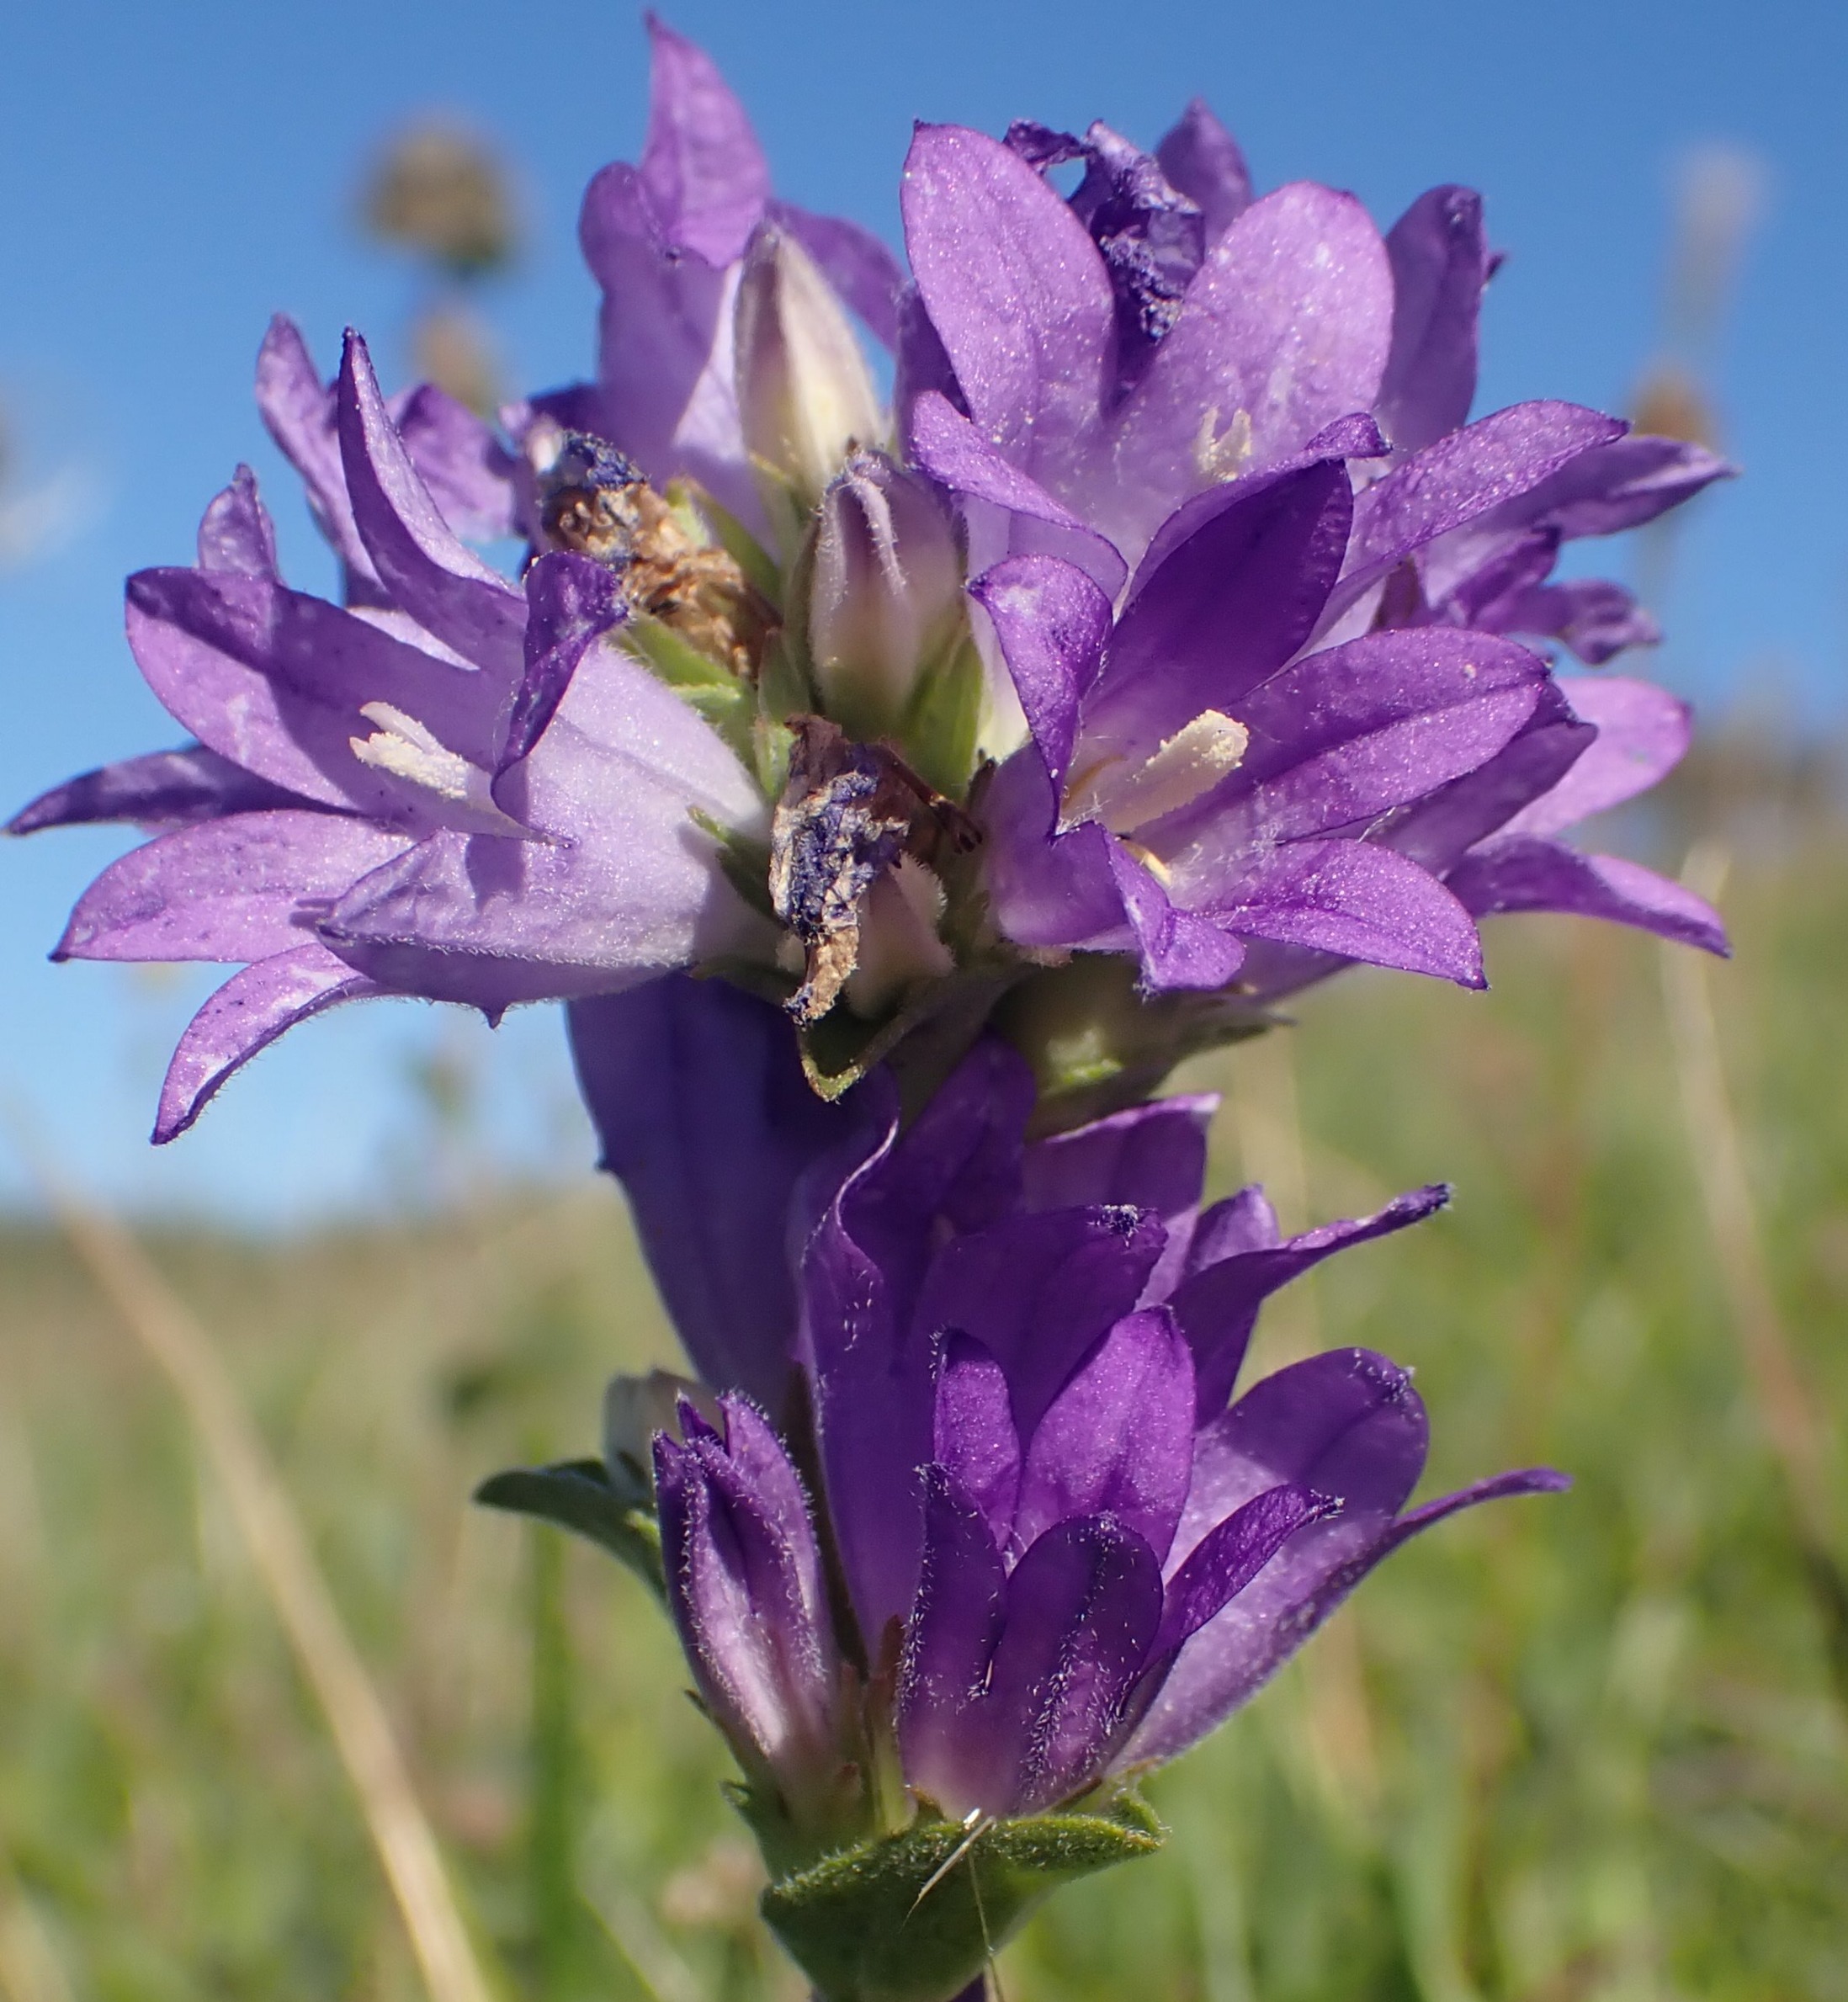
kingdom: Plantae
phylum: Tracheophyta
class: Magnoliopsida
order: Asterales
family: Campanulaceae
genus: Campanula
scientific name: Campanula glomerata
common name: Nøgleblomstret klokke
